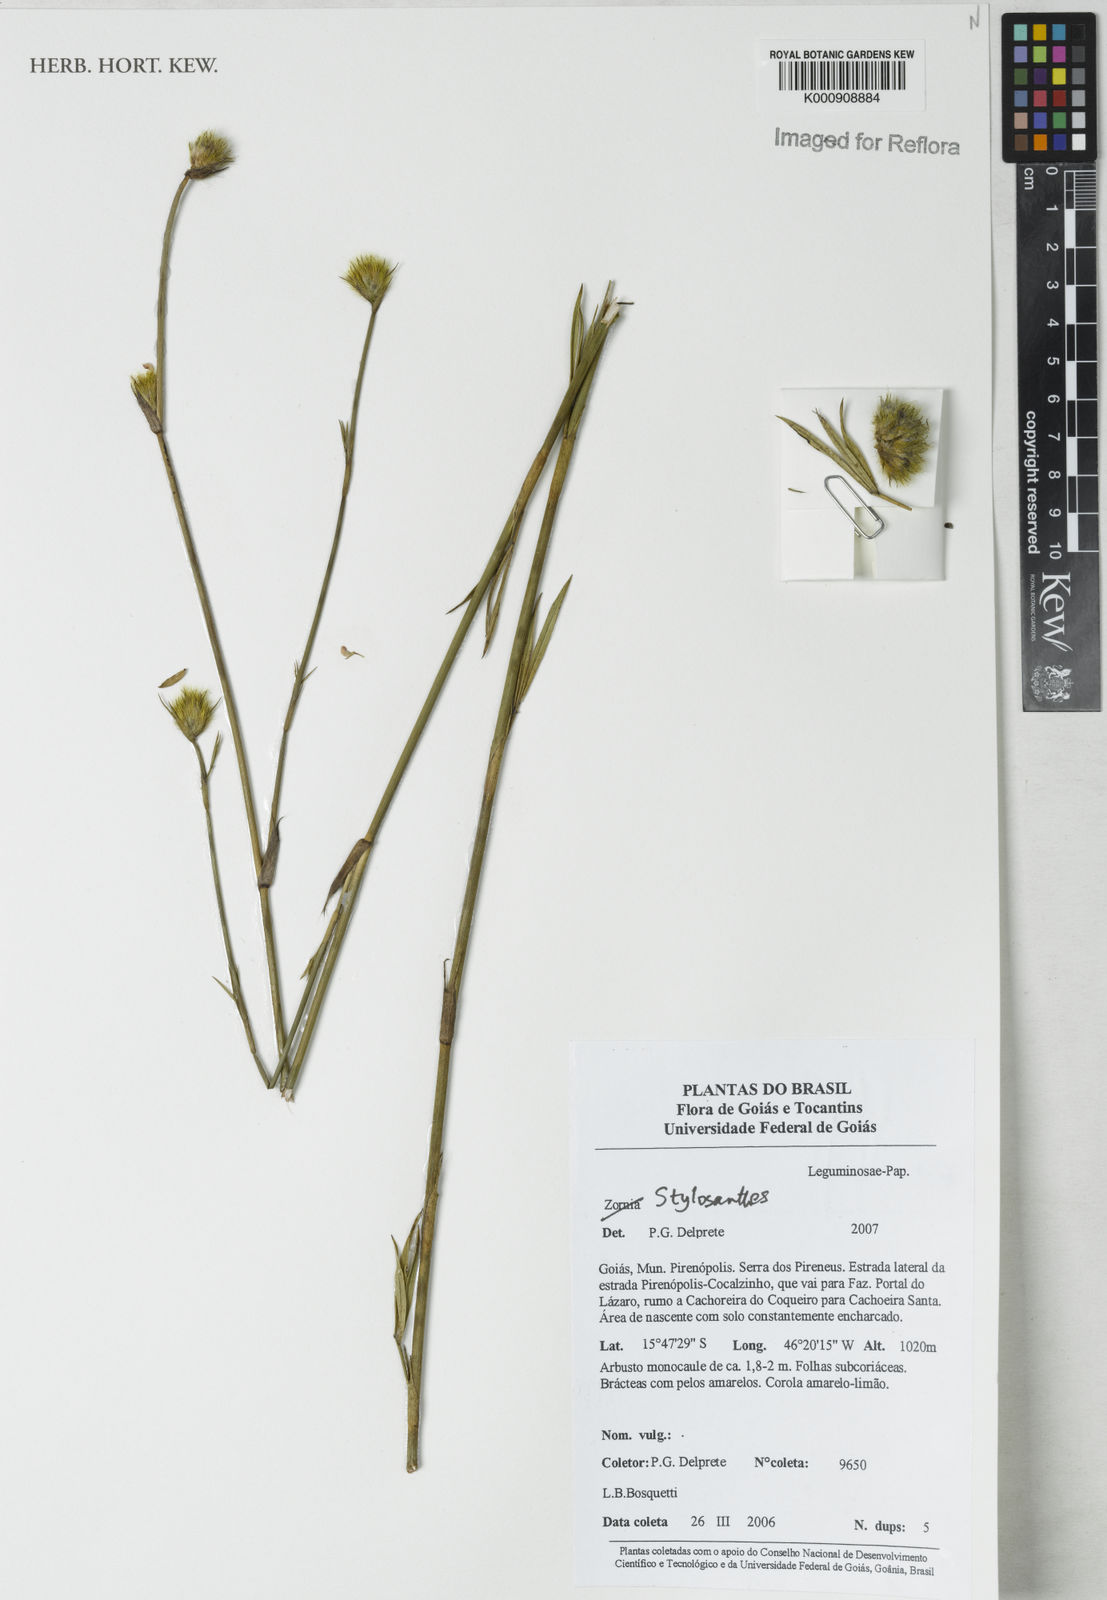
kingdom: Plantae
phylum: Tracheophyta
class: Magnoliopsida
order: Fabales
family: Fabaceae
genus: Stylosanthes
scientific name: Stylosanthes
